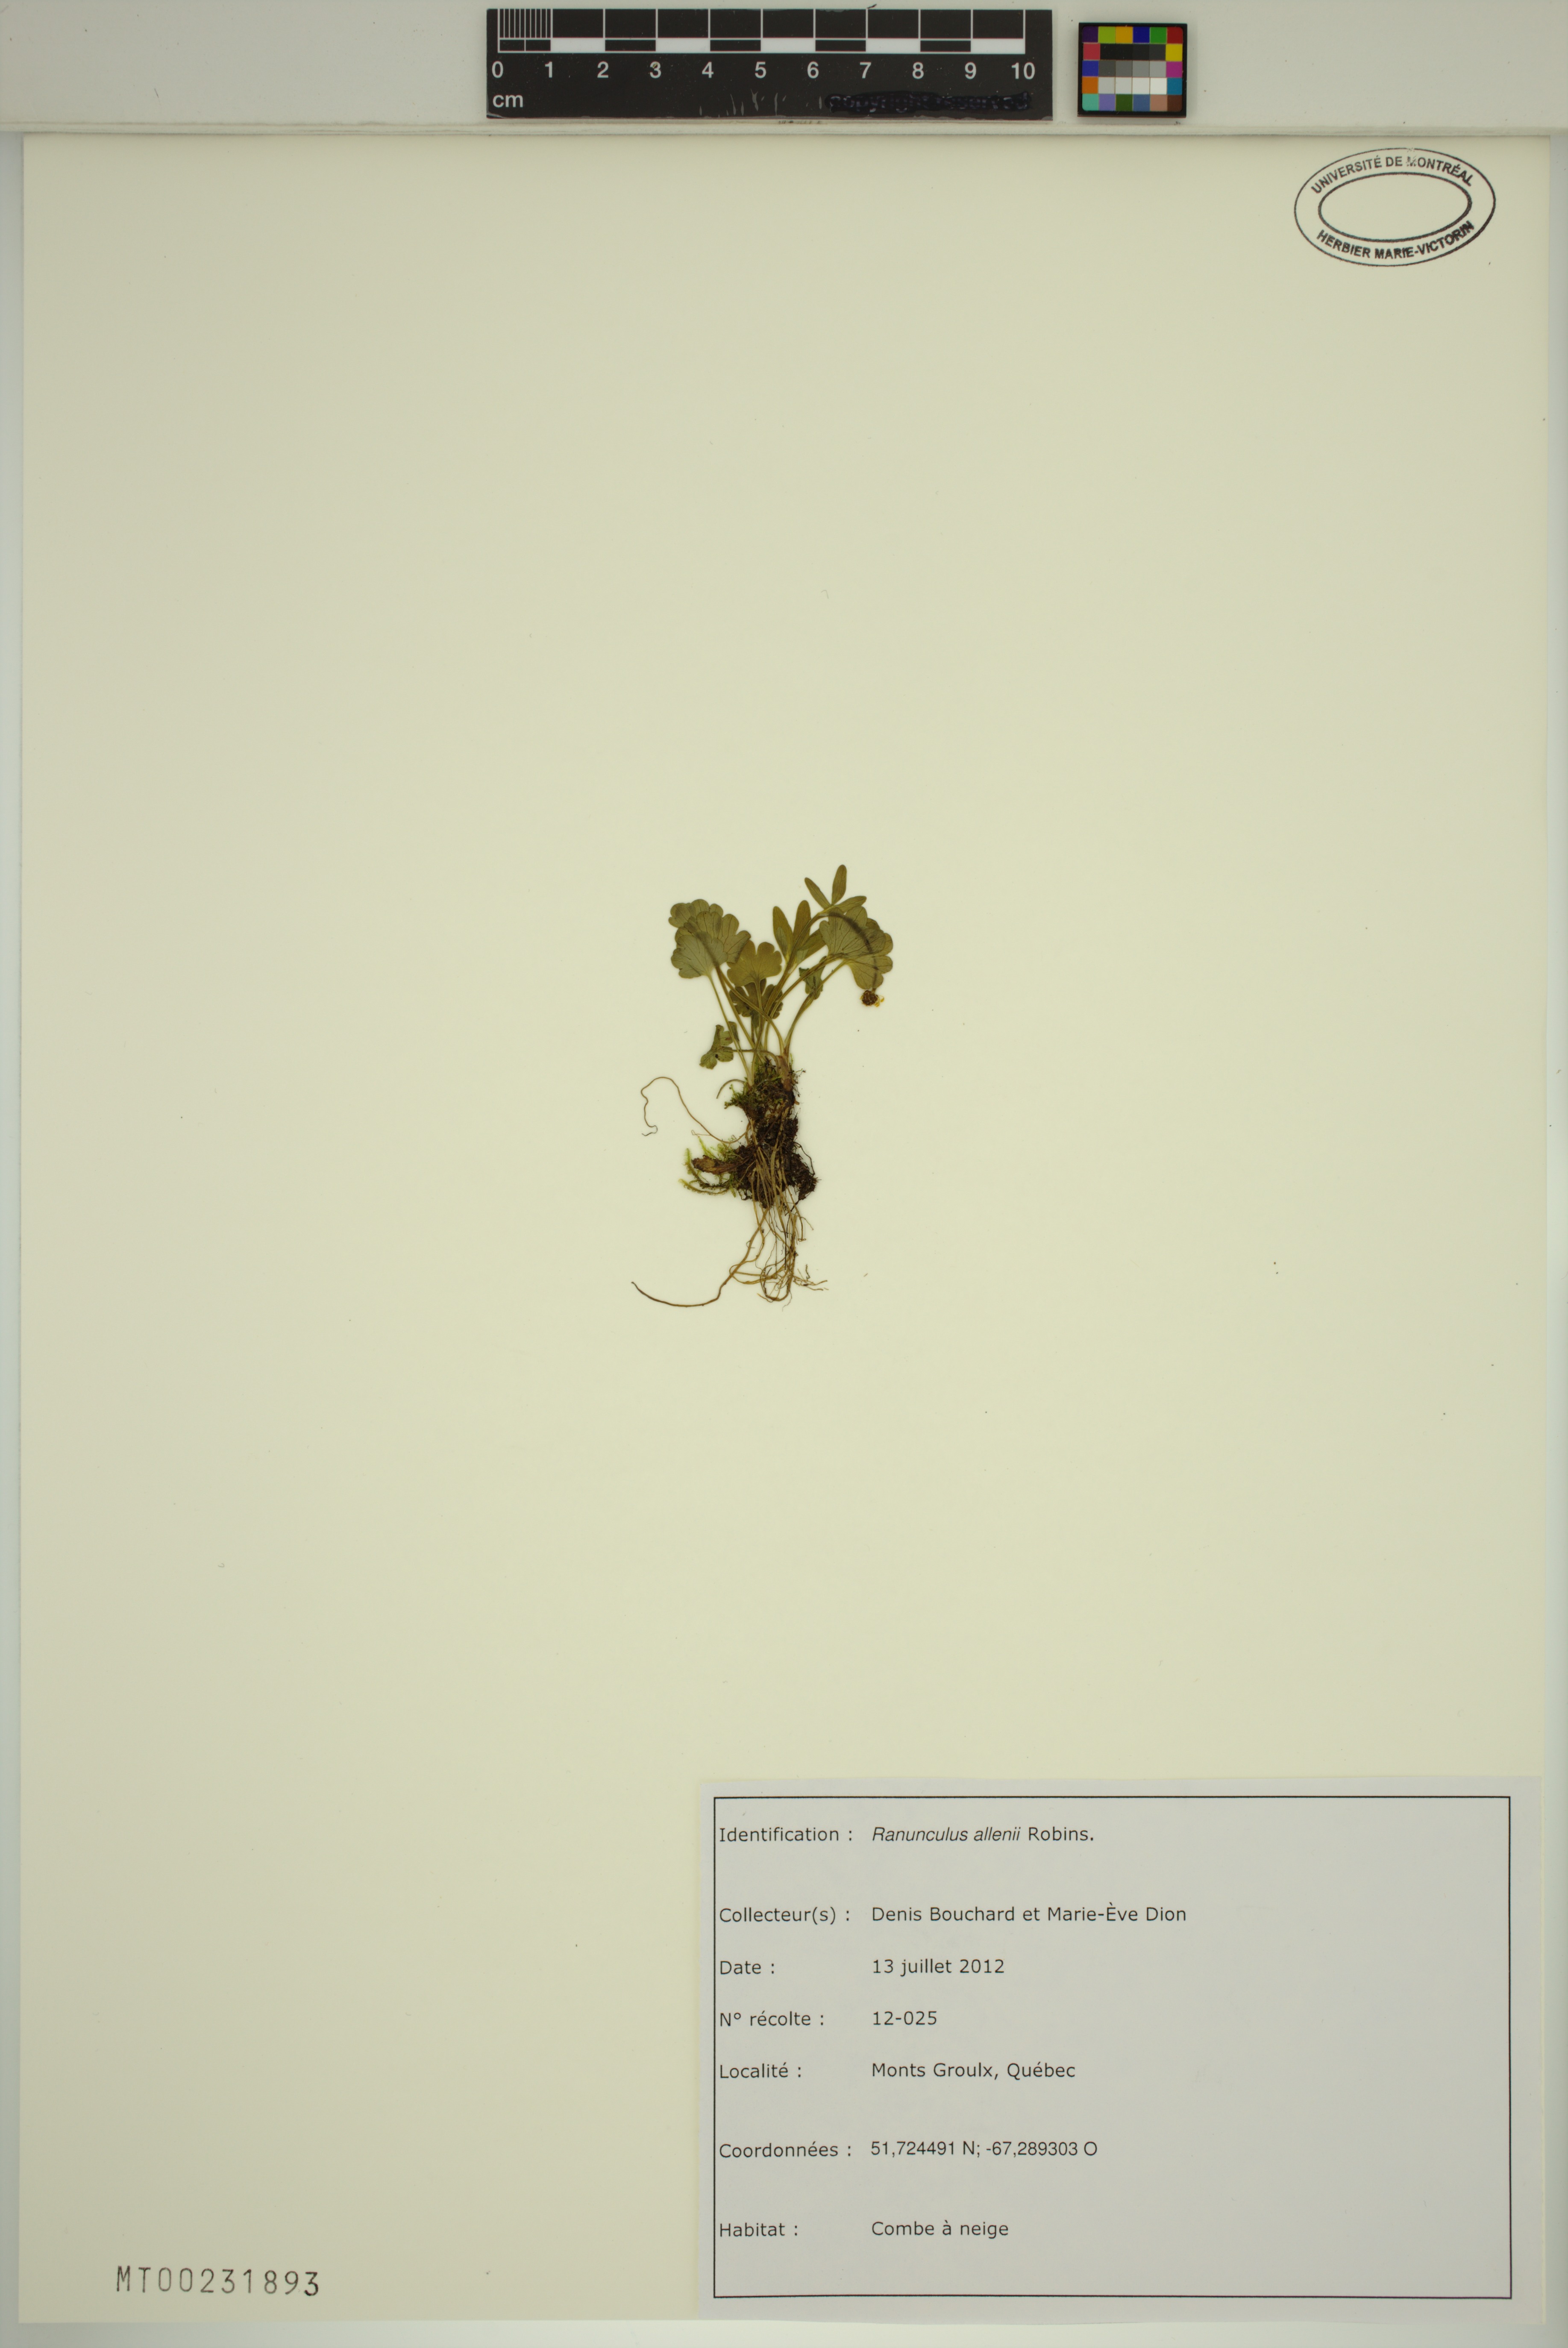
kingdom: Plantae
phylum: Tracheophyta
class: Magnoliopsida
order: Ranunculales
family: Ranunculaceae
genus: Ranunculus
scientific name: Ranunculus allenii
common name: Allen's buttercup
